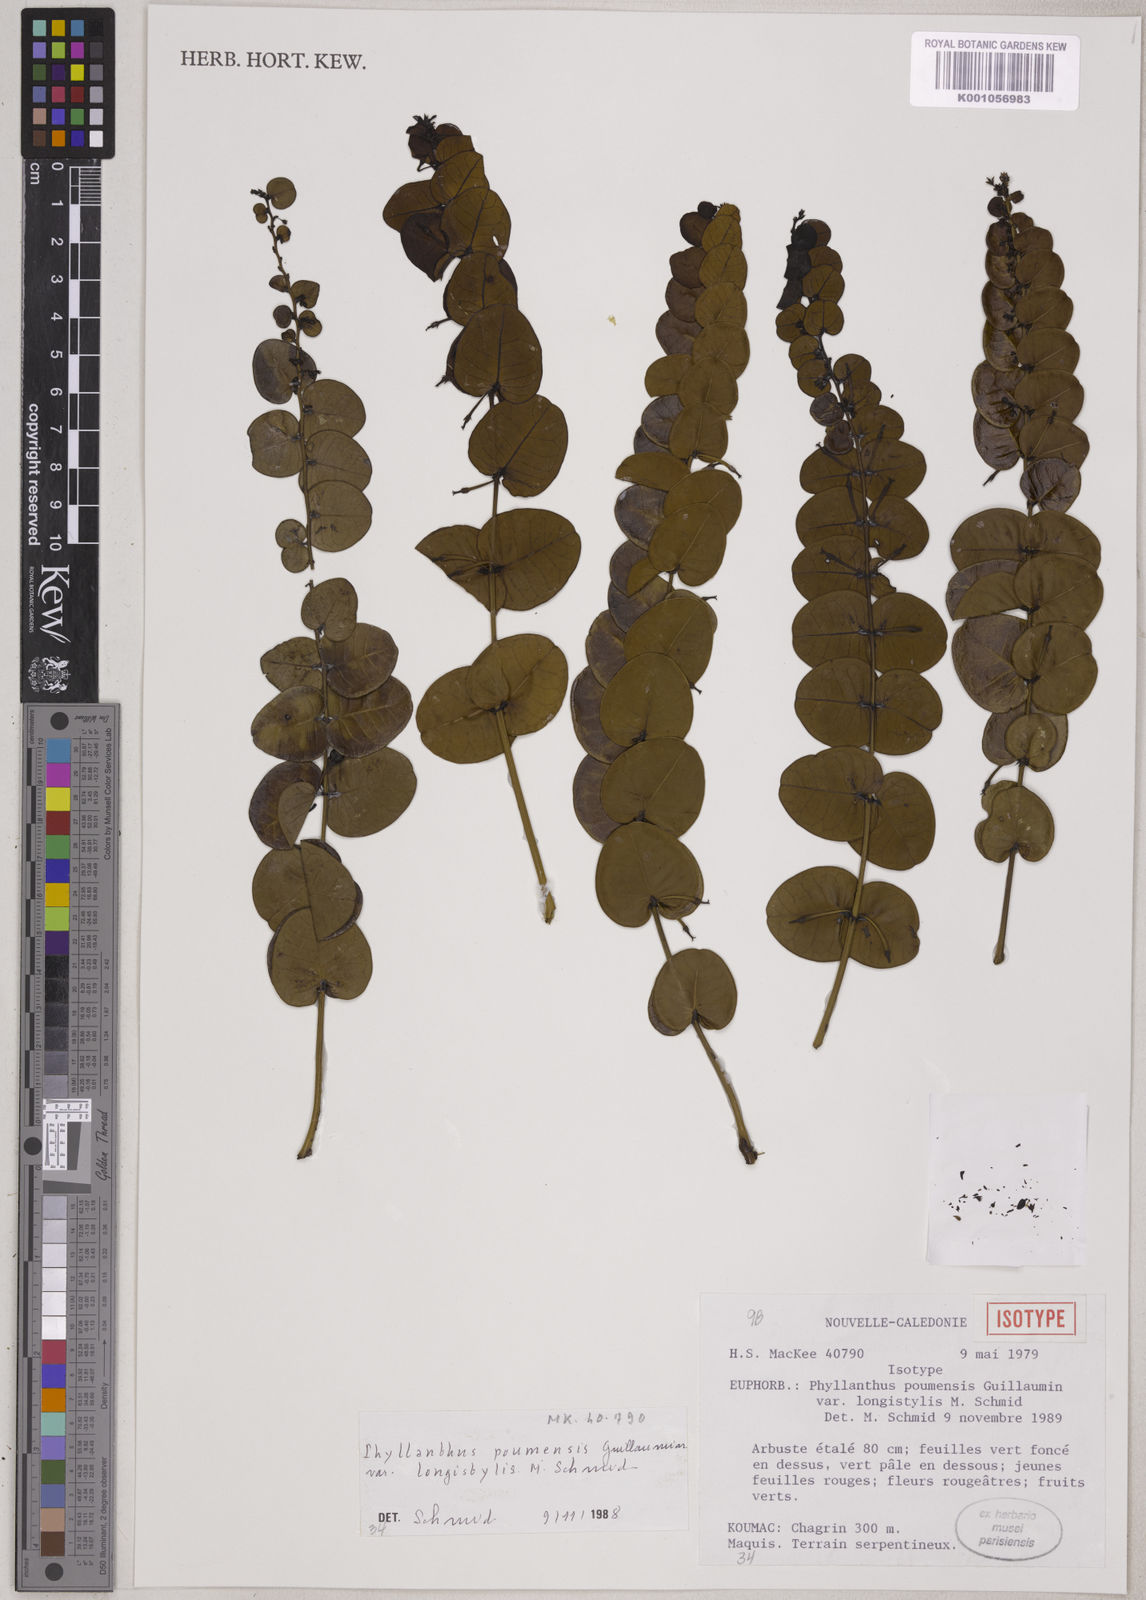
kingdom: Plantae
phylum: Tracheophyta
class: Magnoliopsida
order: Malpighiales
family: Phyllanthaceae
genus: Phyllanthus
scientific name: Phyllanthus poumensis
